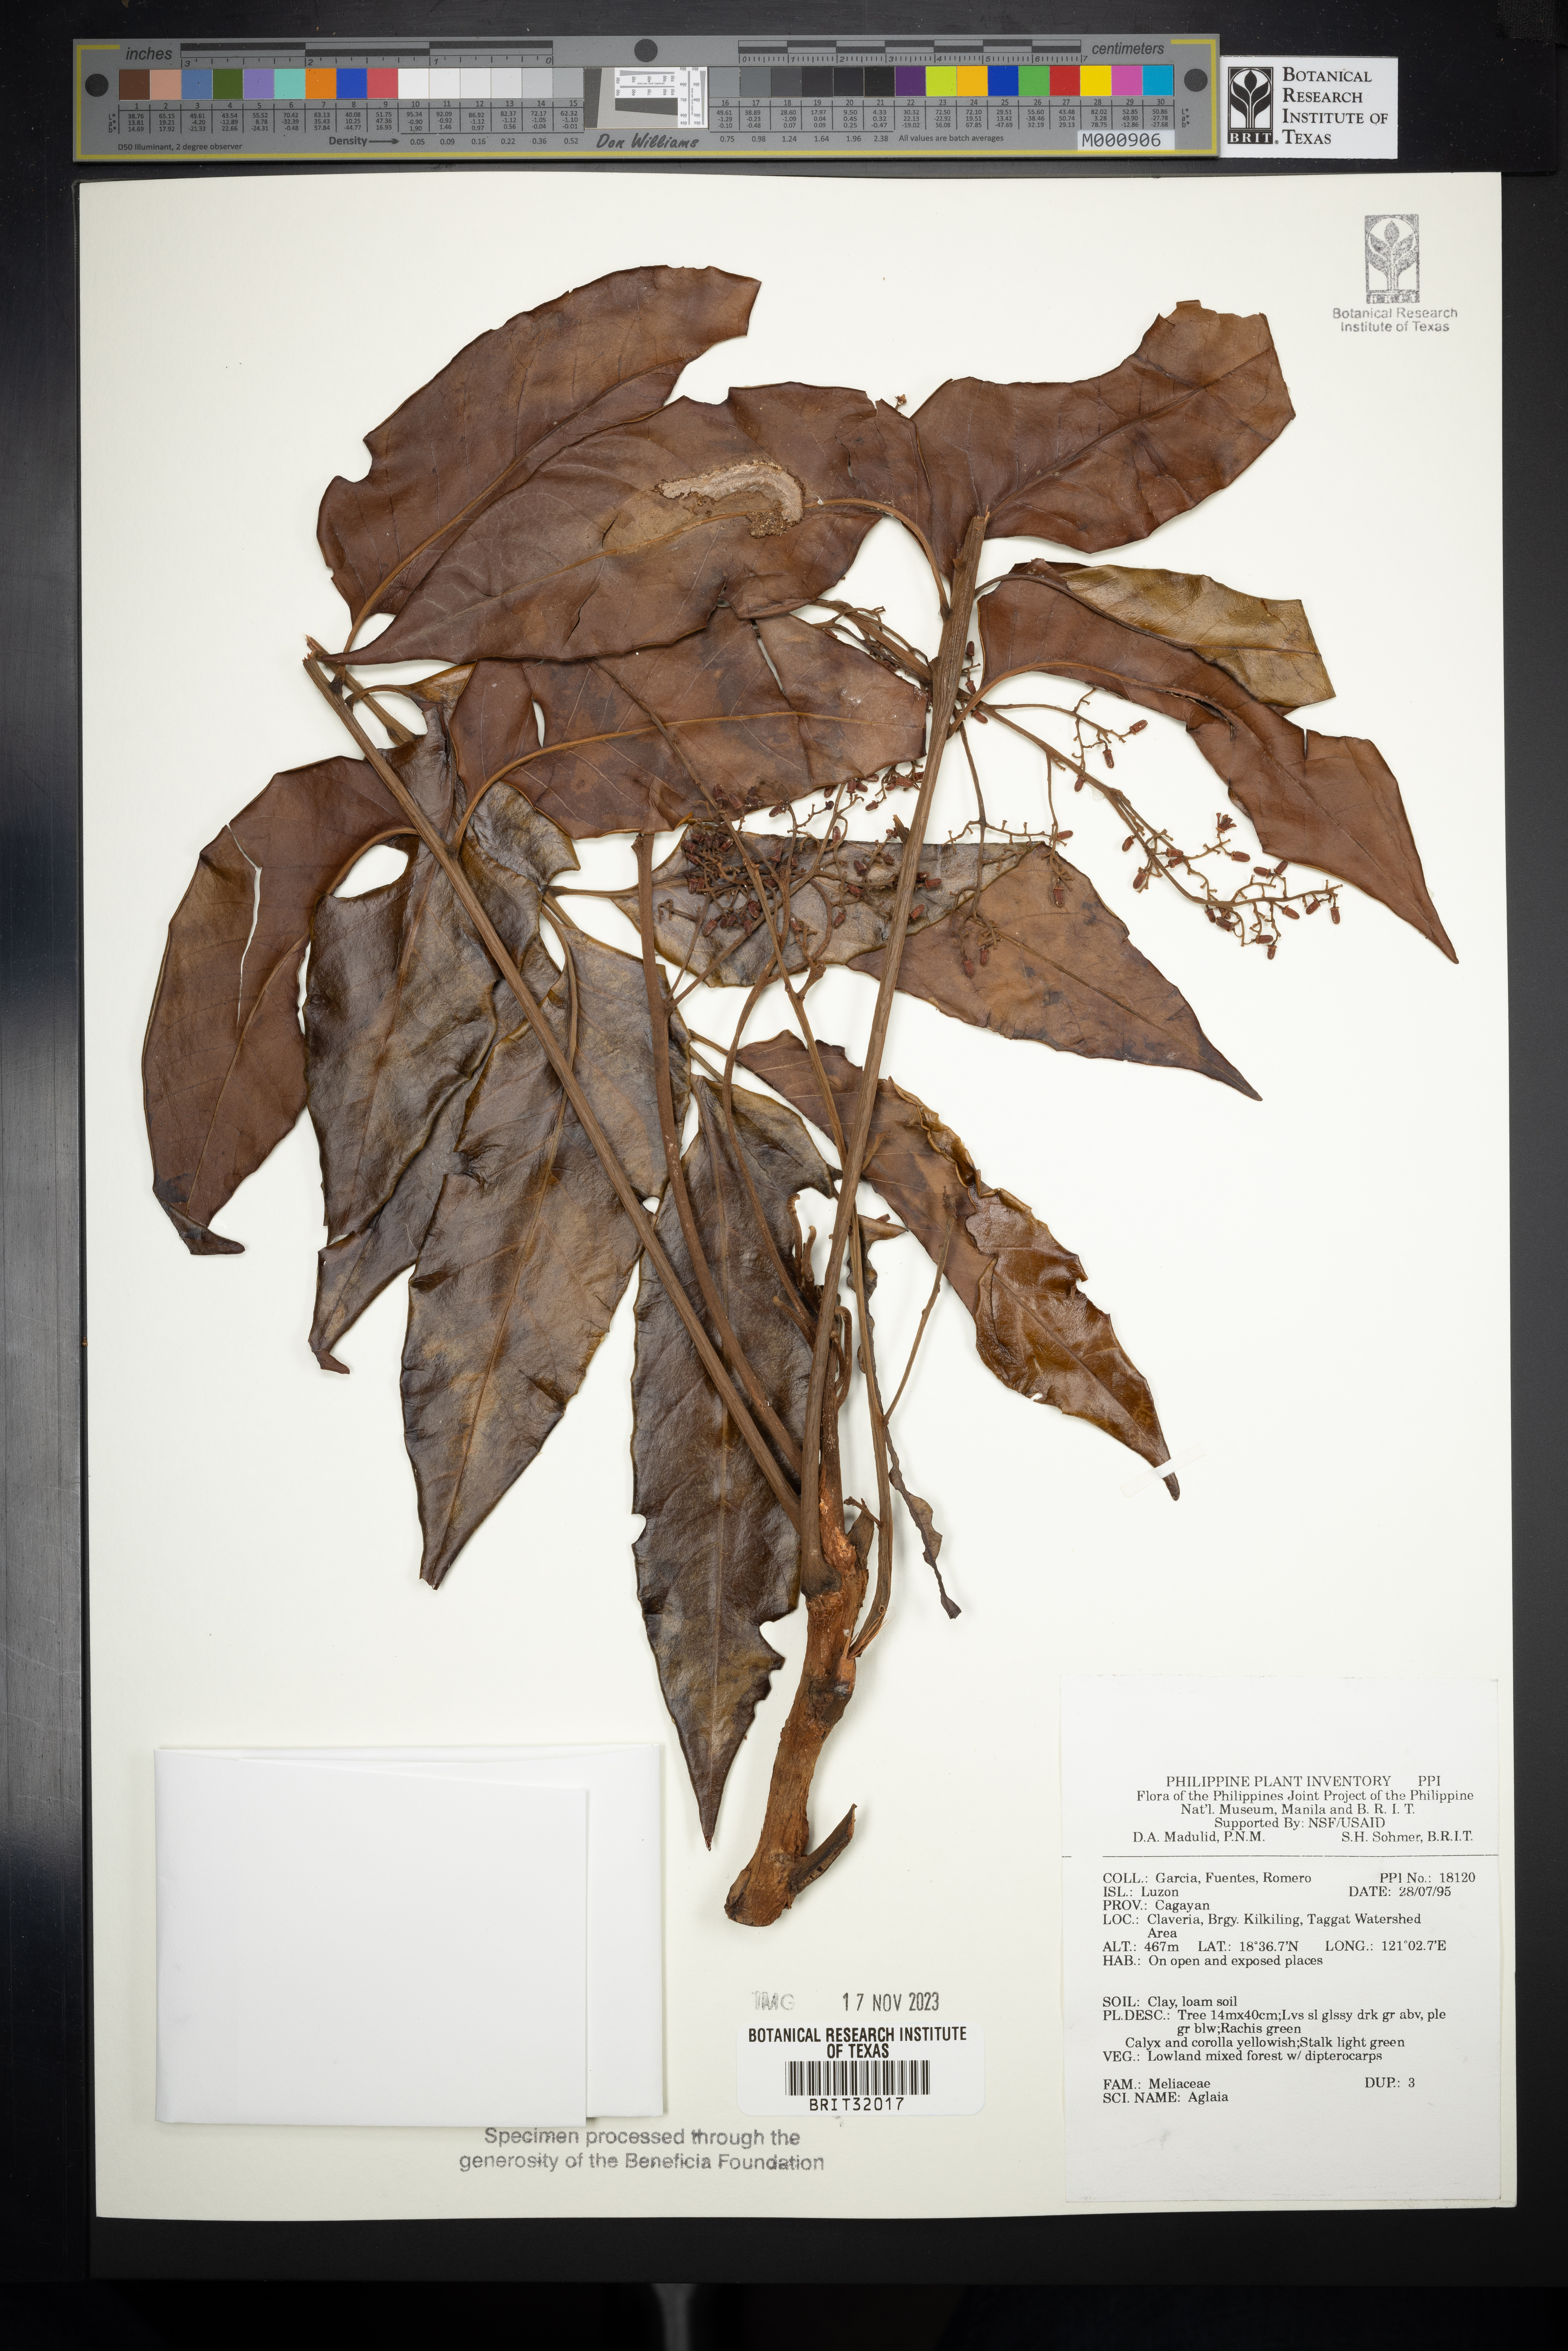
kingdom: Plantae
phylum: Tracheophyta
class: Magnoliopsida
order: Sapindales
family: Meliaceae
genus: Aglaia
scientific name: Aglaia
